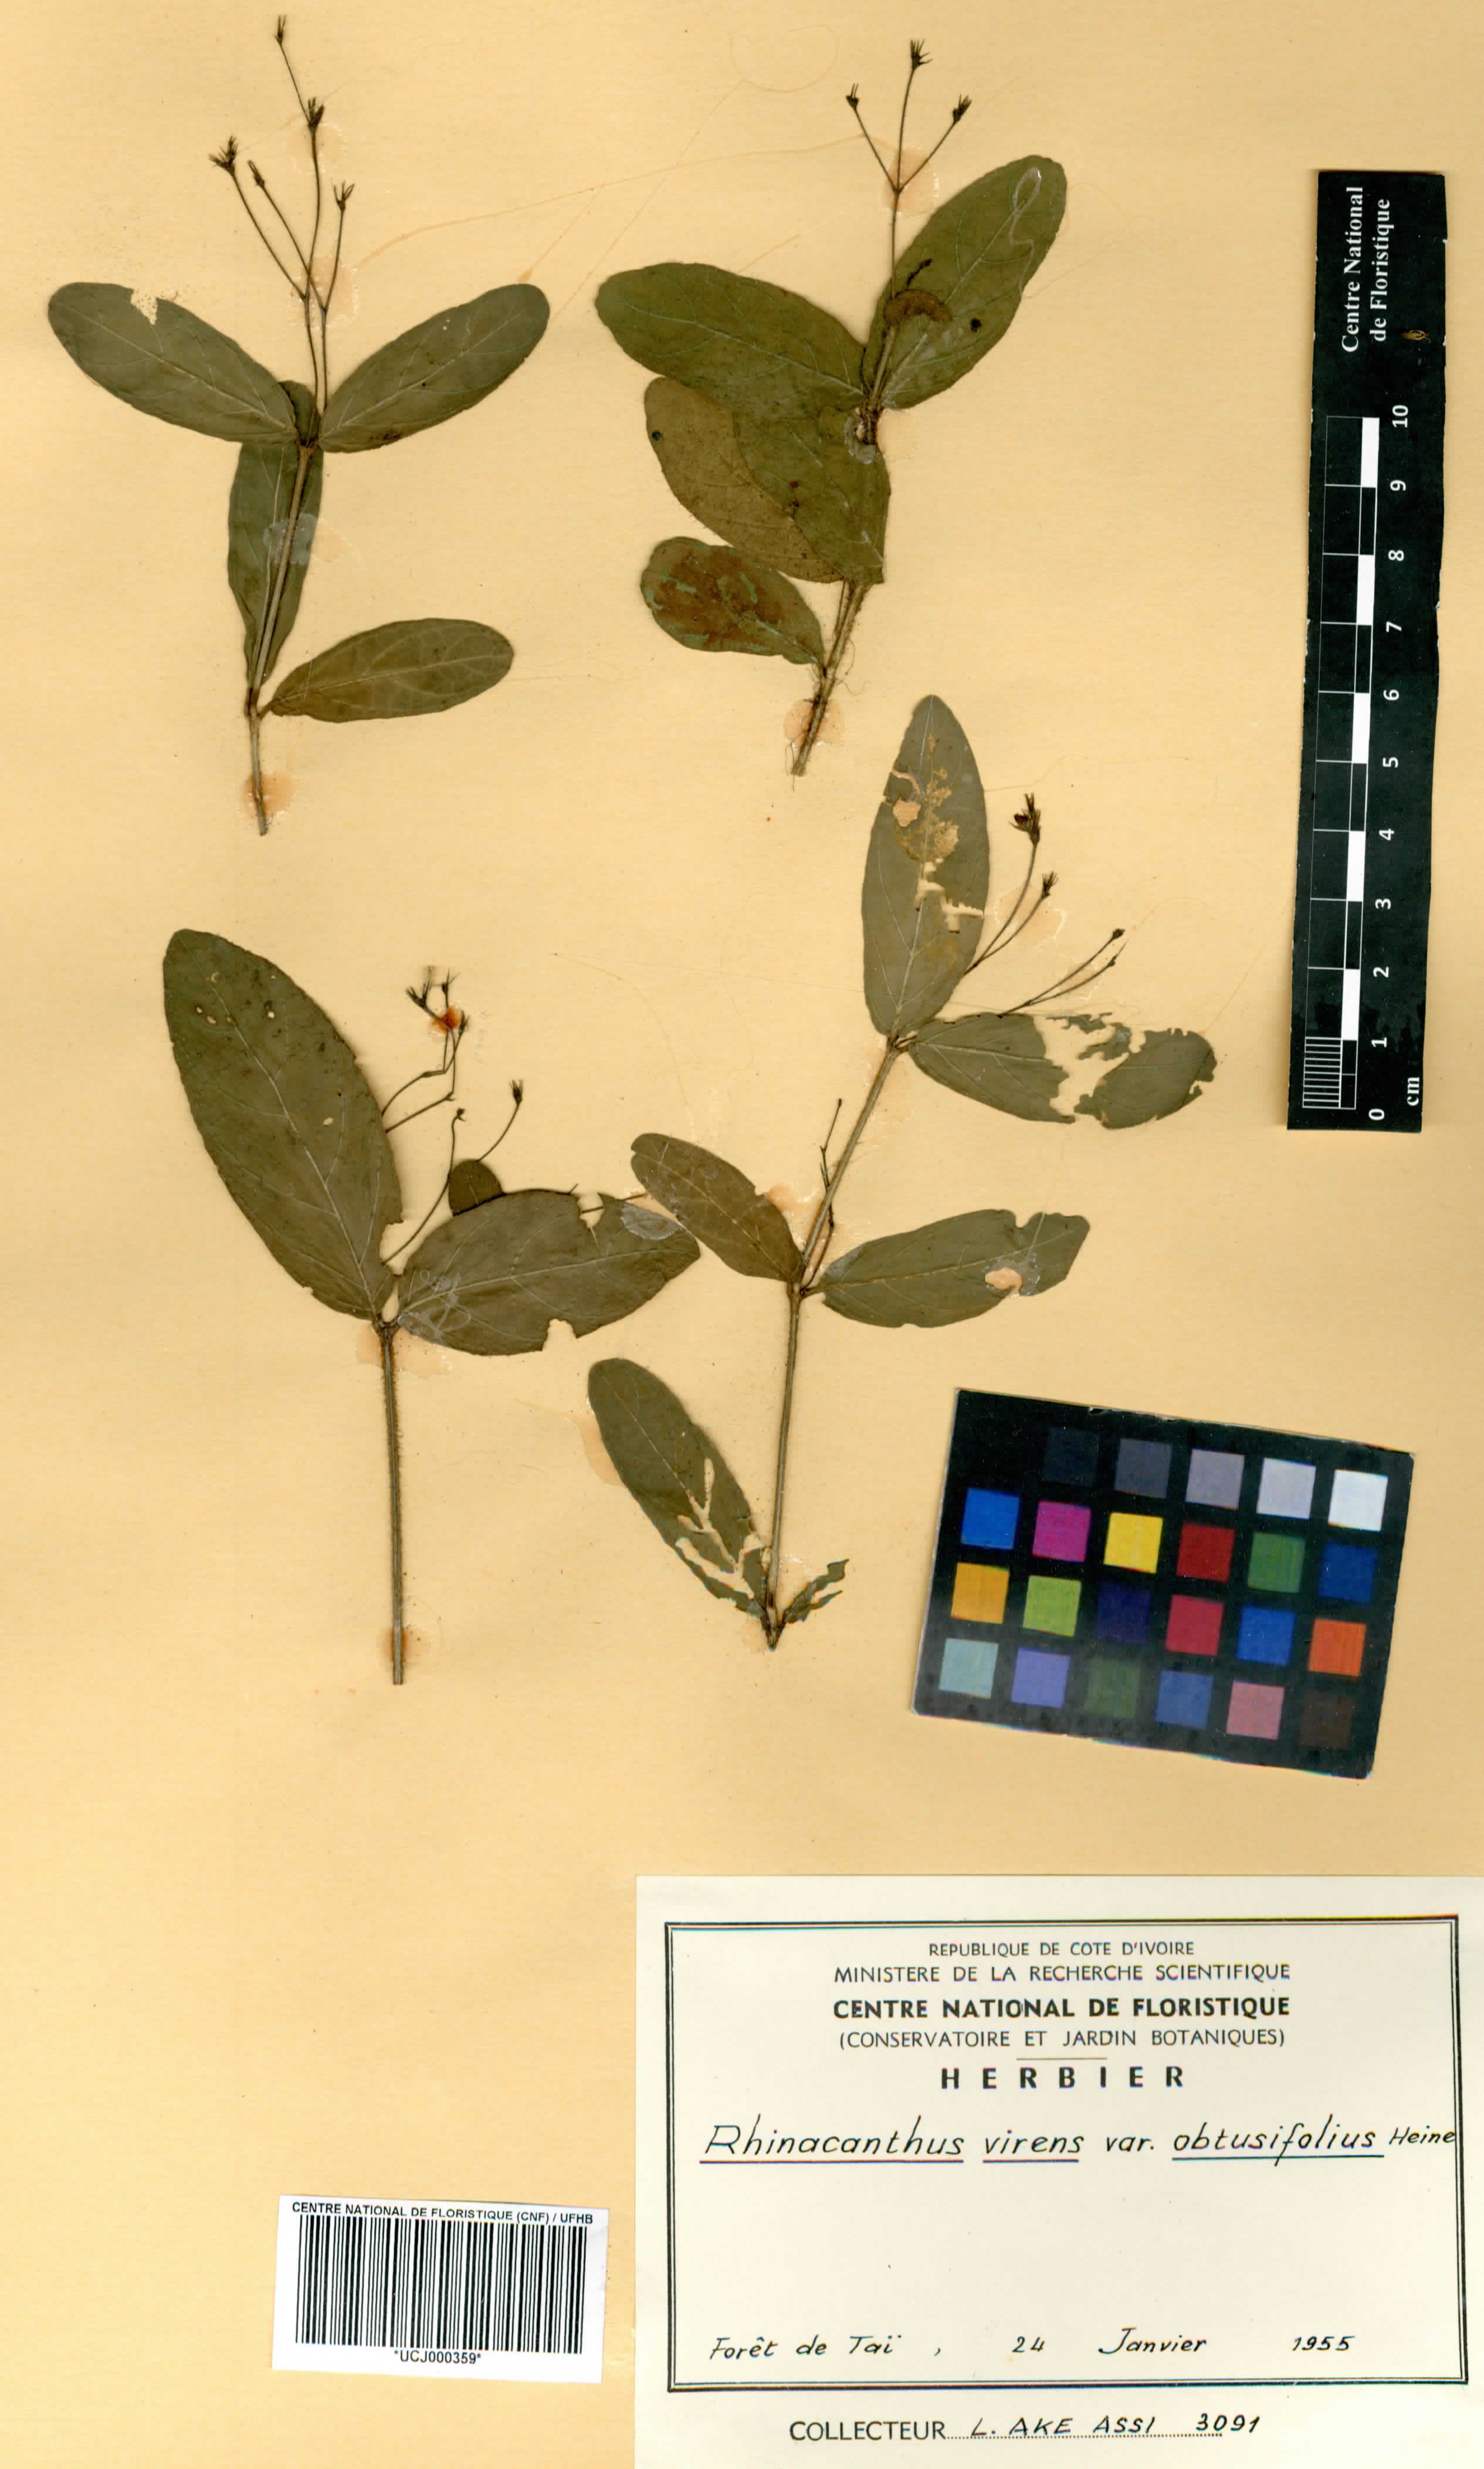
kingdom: Plantae
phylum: Tracheophyta
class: Magnoliopsida
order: Lamiales
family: Acanthaceae
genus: Rhinacanthus
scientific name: Rhinacanthus obtusifolius
